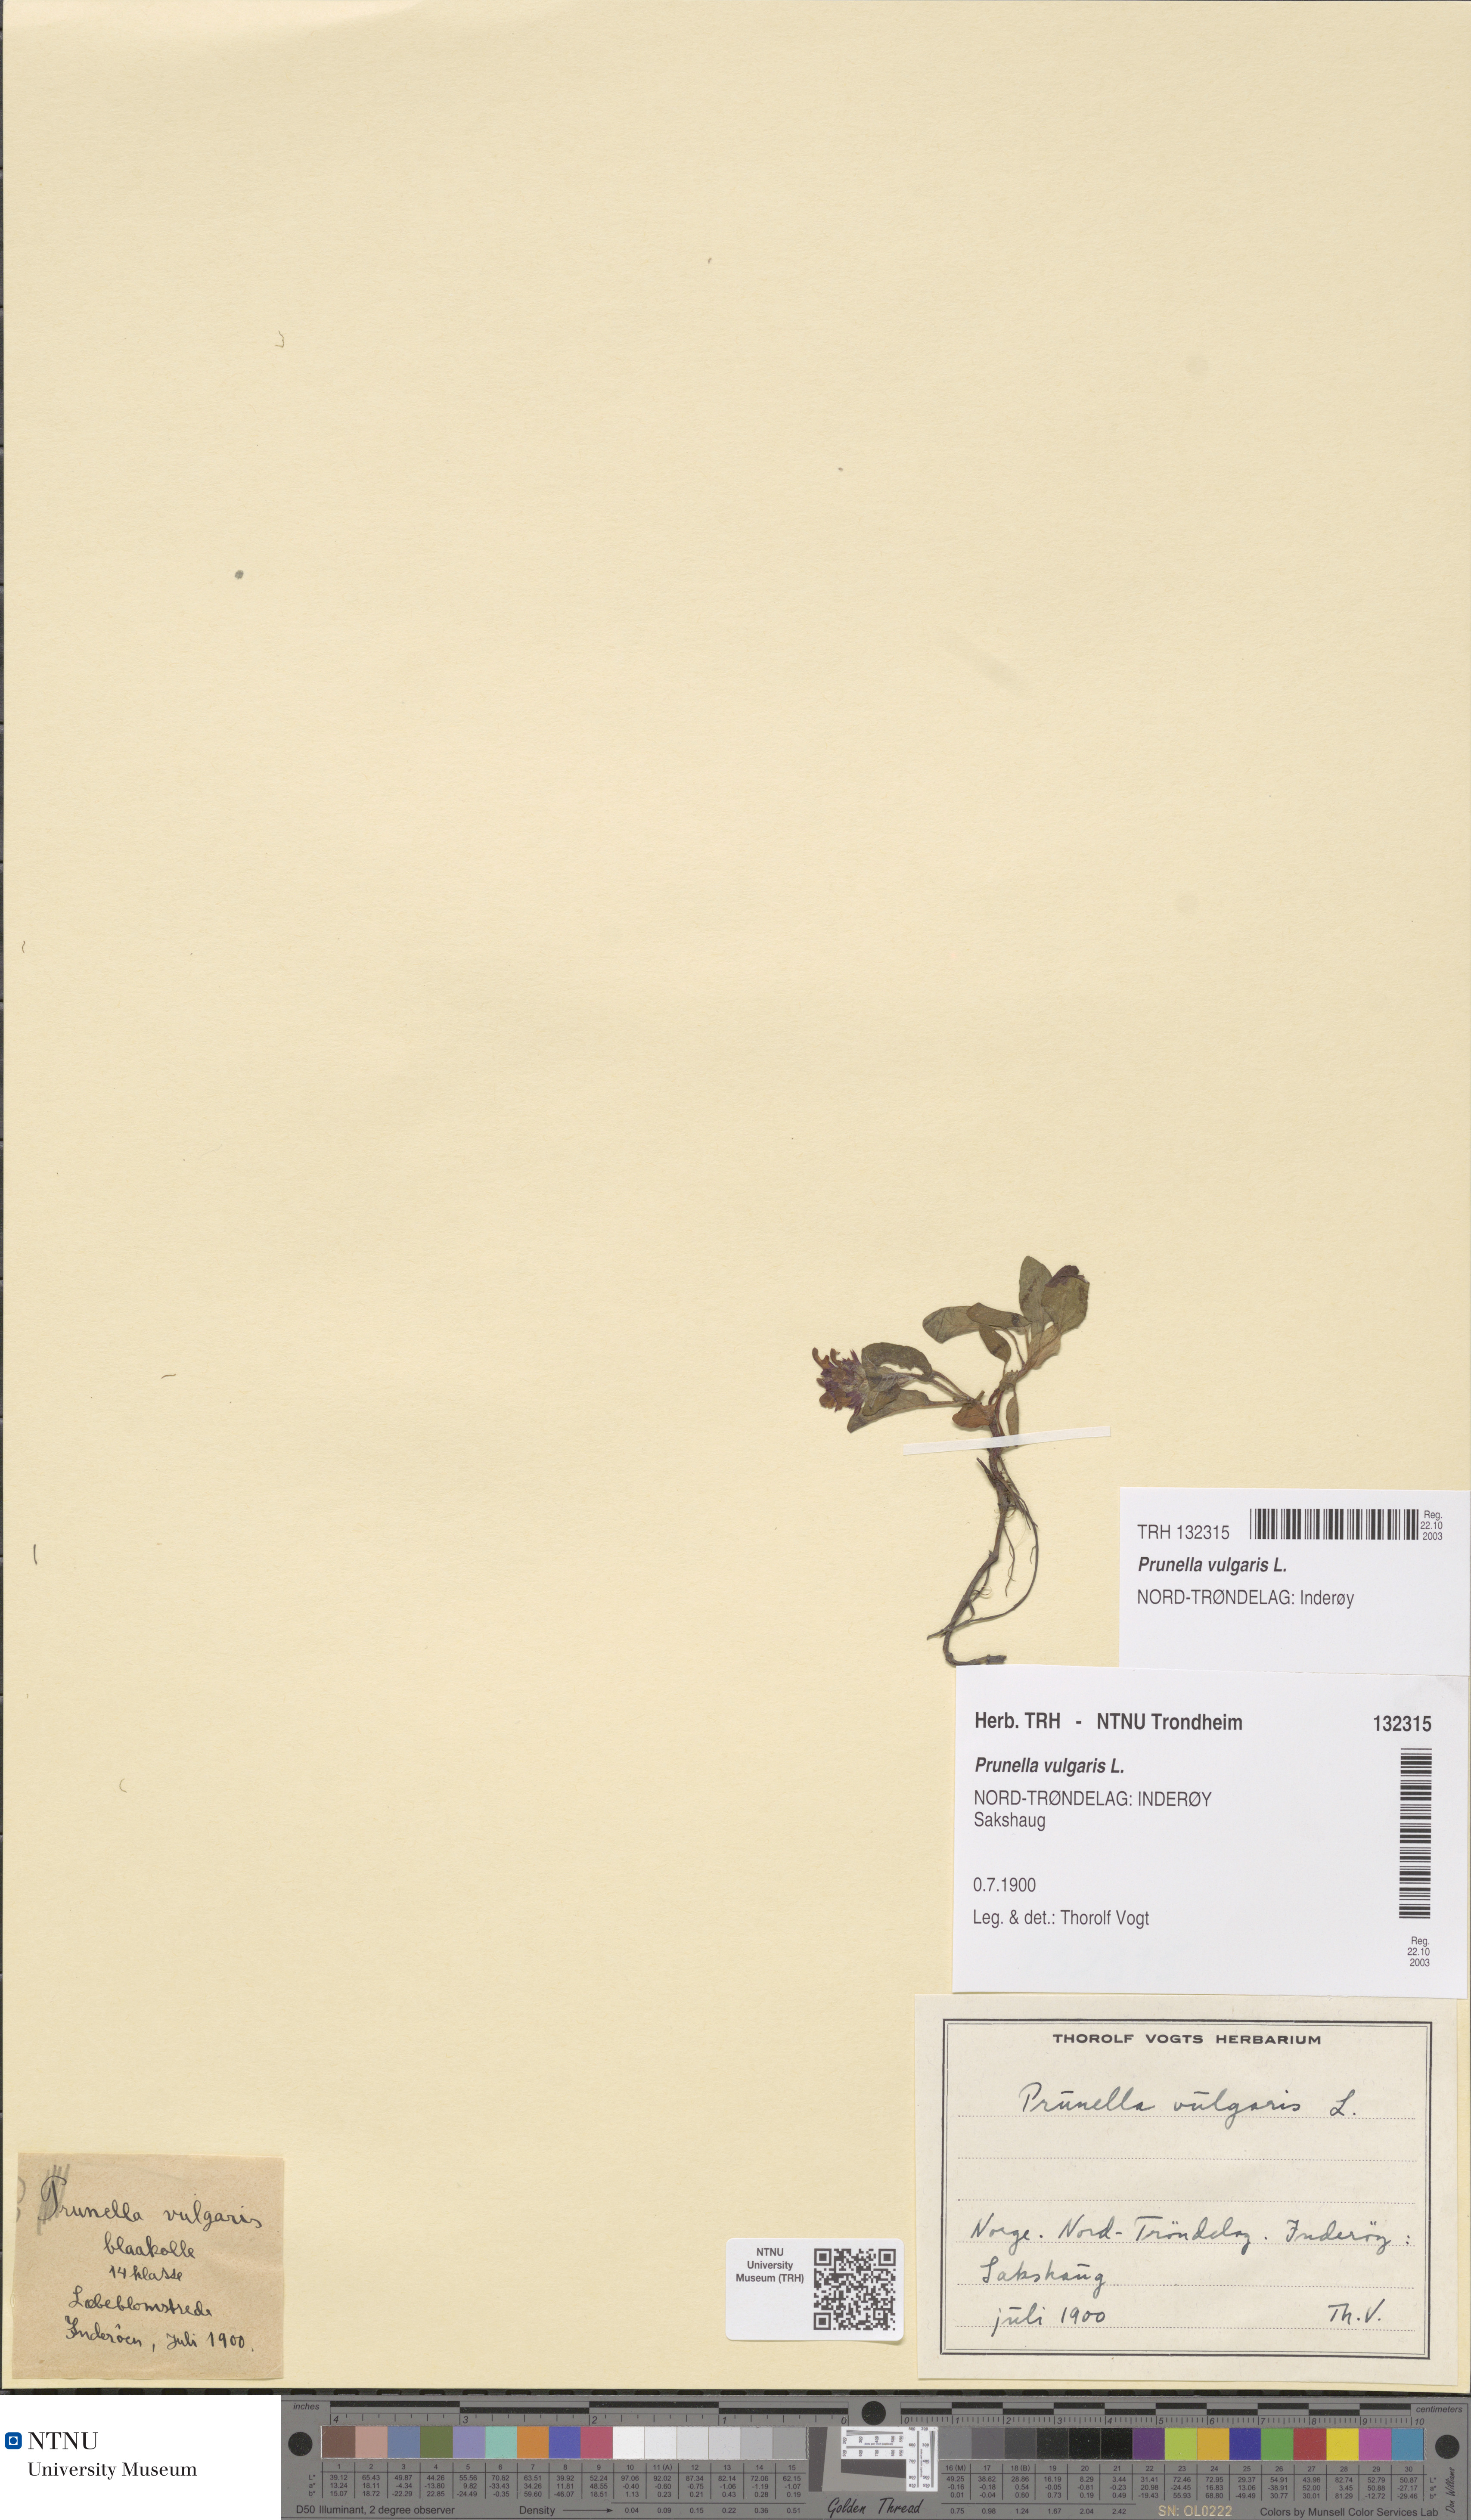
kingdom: Plantae
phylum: Tracheophyta
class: Magnoliopsida
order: Lamiales
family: Lamiaceae
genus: Prunella
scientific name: Prunella vulgaris
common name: Heal-all
